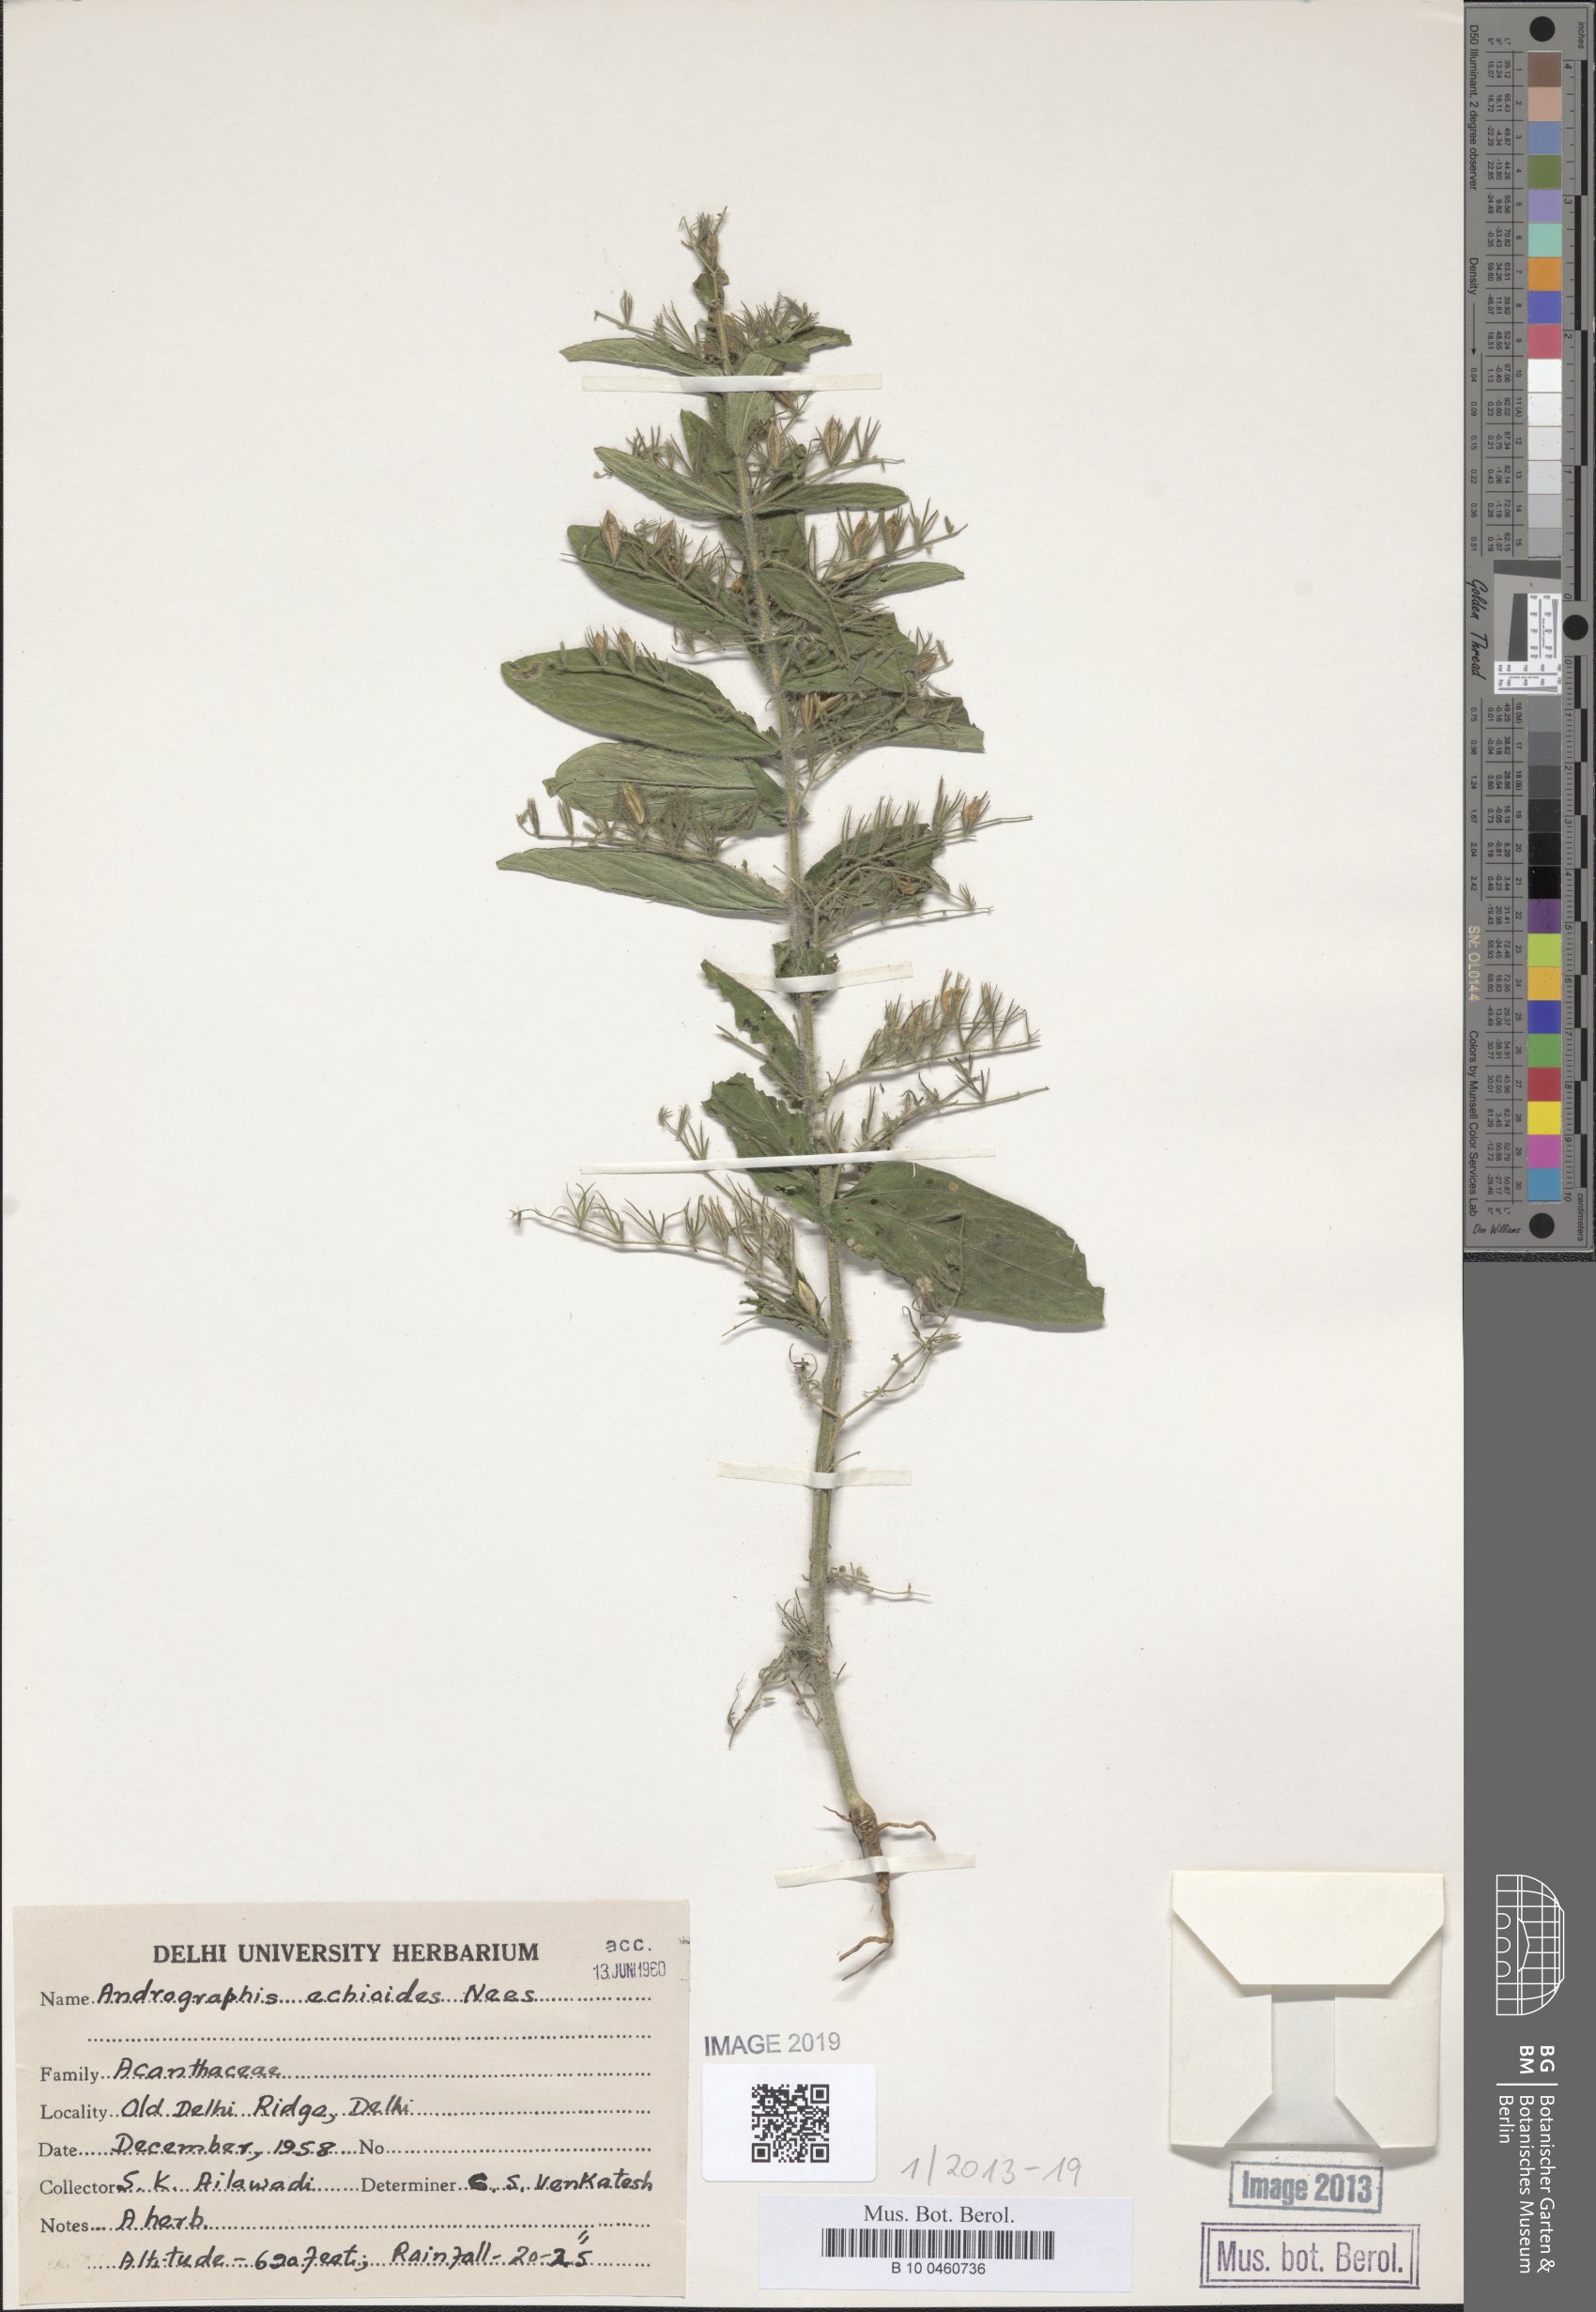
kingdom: Plantae
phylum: Tracheophyta
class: Magnoliopsida
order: Lamiales
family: Acanthaceae
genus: Andrographis
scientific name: Andrographis echioides
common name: False waterwillow
